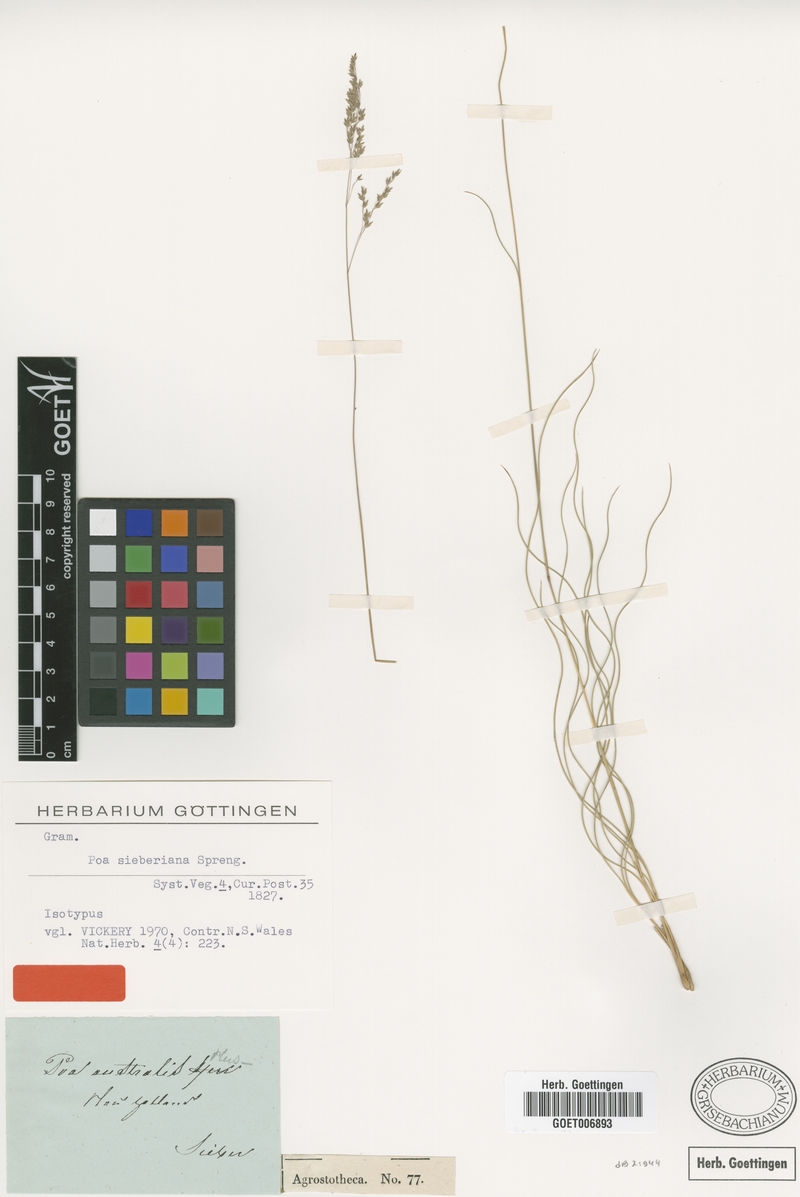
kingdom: Plantae
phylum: Tracheophyta
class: Liliopsida
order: Poales
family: Poaceae
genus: Poa
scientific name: Poa sieberiana
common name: Tussock poa
